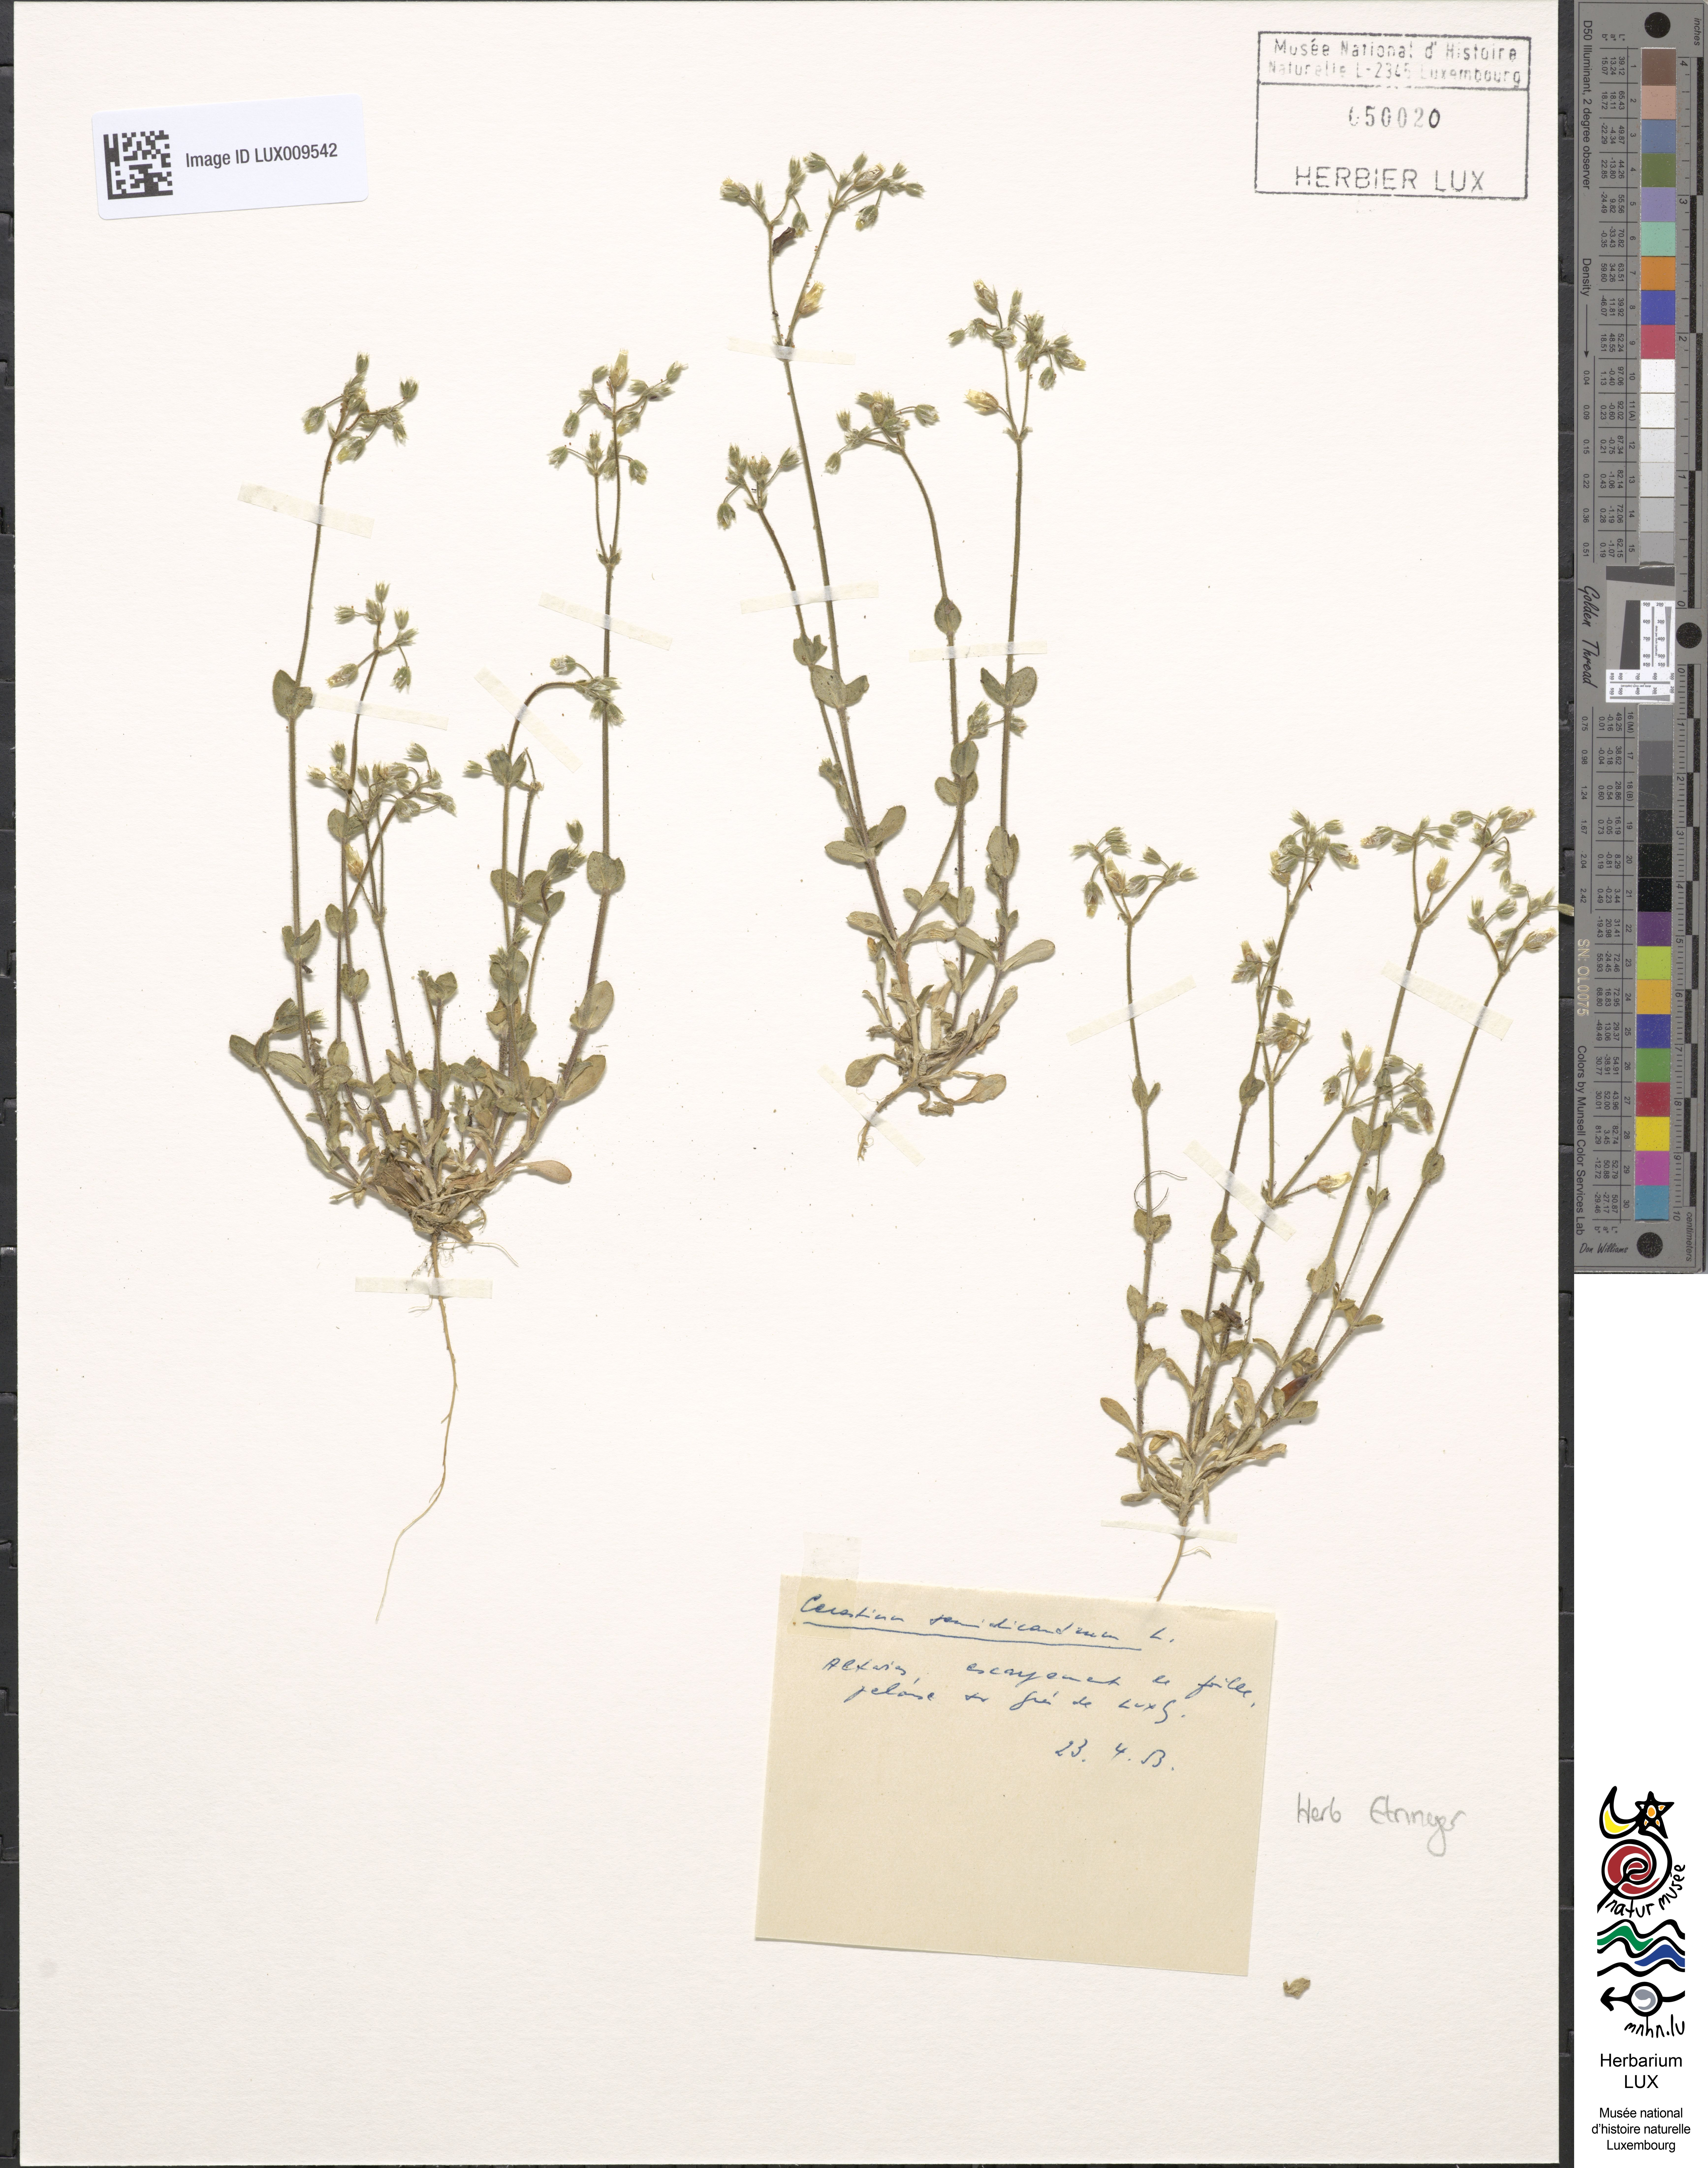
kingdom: Plantae
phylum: Tracheophyta
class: Magnoliopsida
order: Caryophyllales
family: Caryophyllaceae
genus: Cerastium
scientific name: Cerastium semidecandrum
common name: Little mouse-ear
